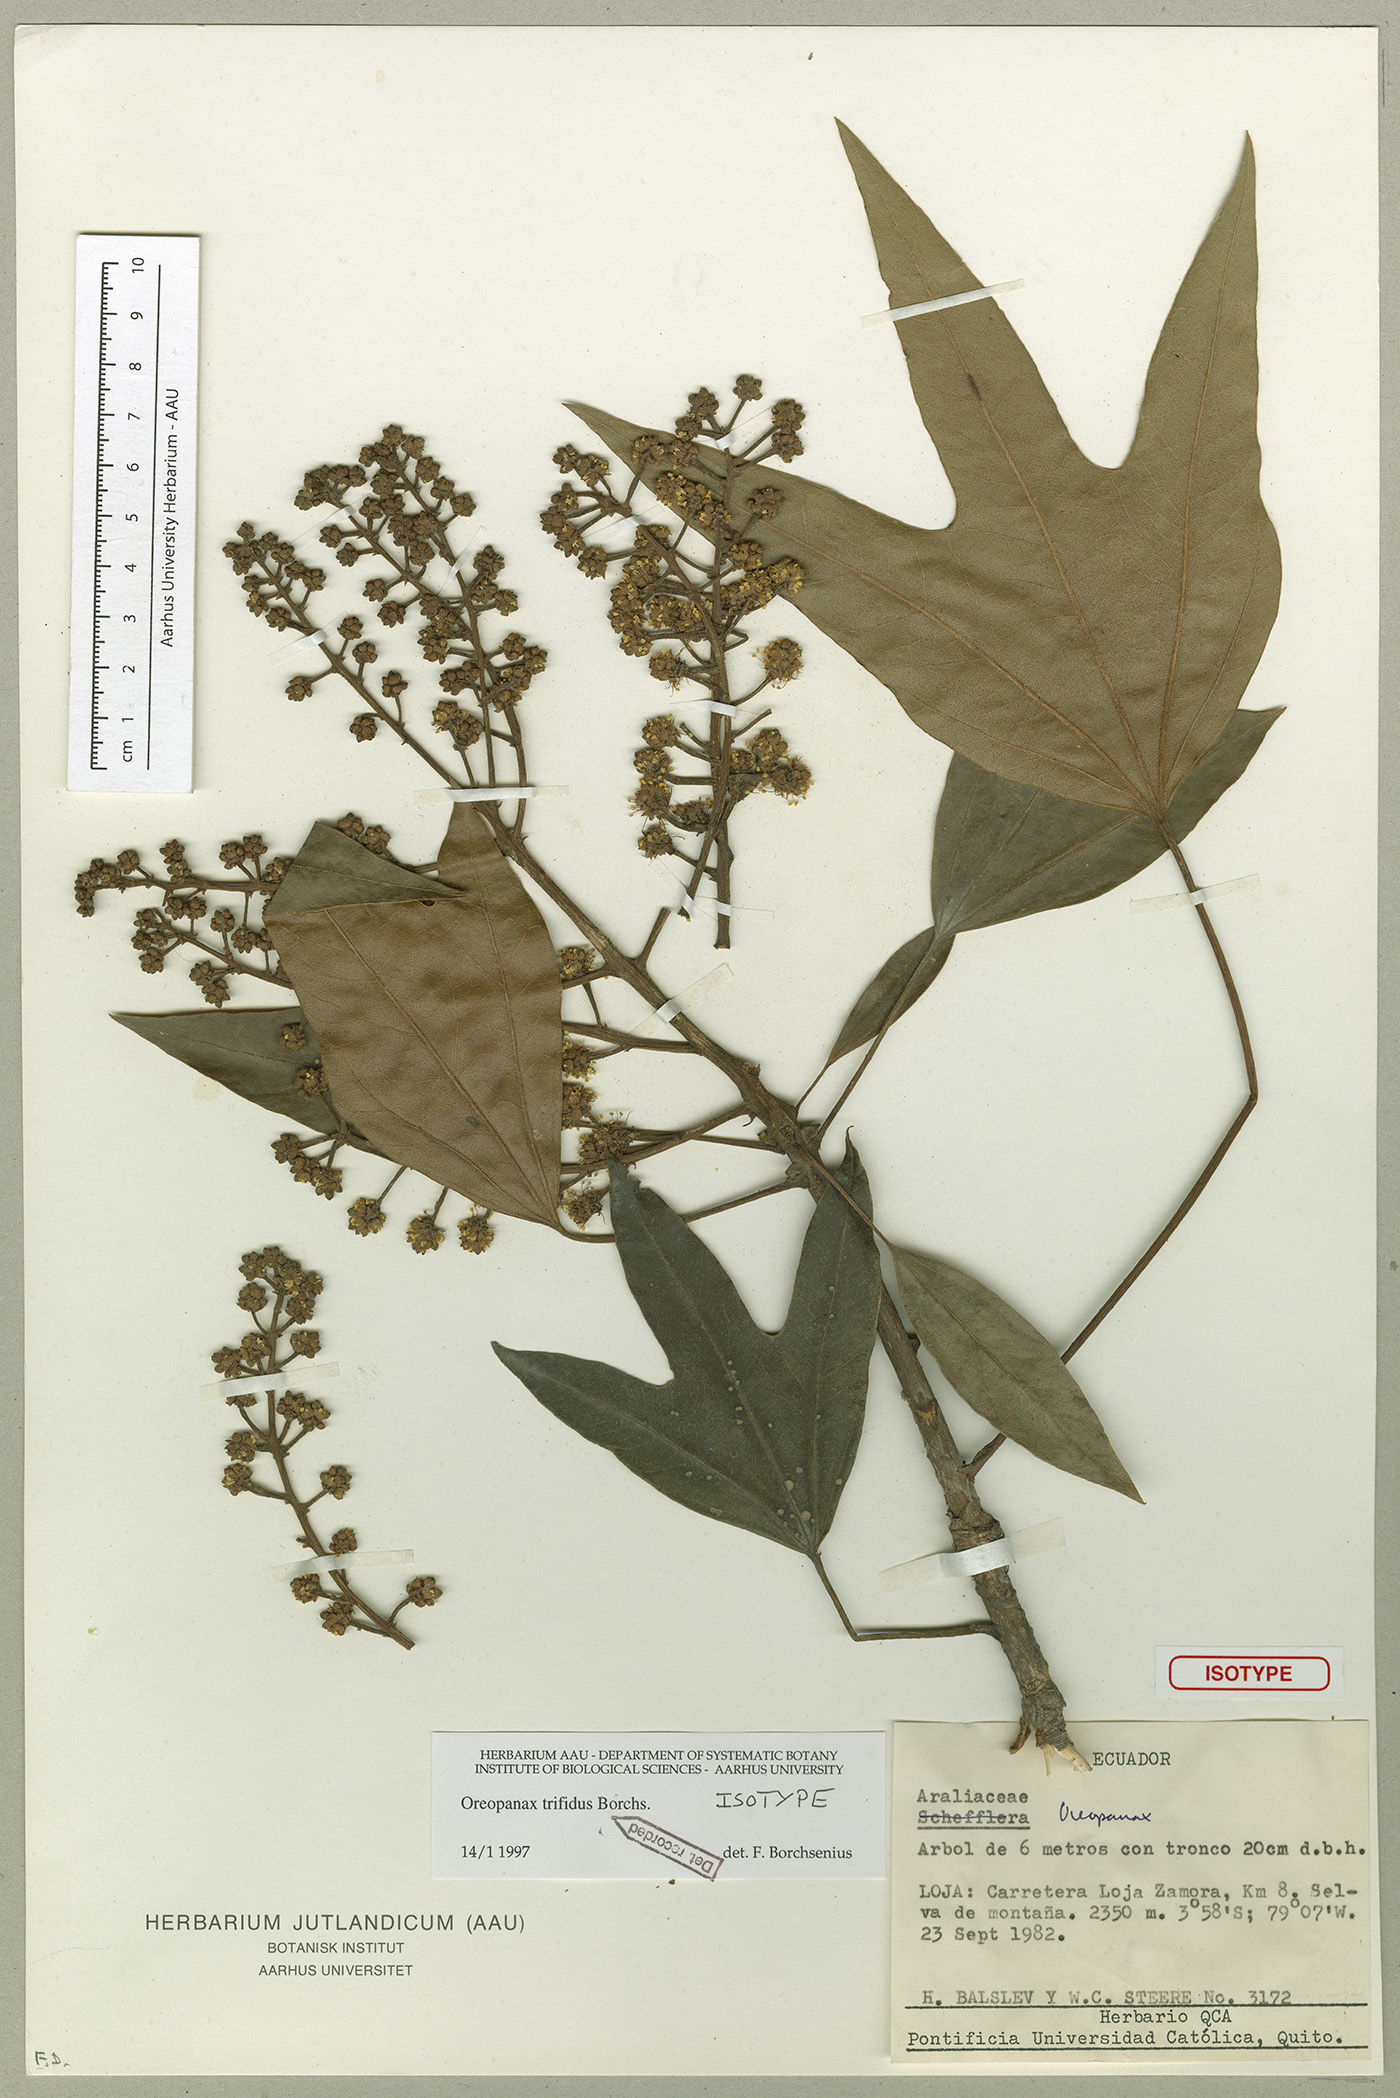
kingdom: Plantae
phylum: Tracheophyta
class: Magnoliopsida
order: Apiales
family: Araliaceae
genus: Oreopanax
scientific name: Oreopanax trifidus
